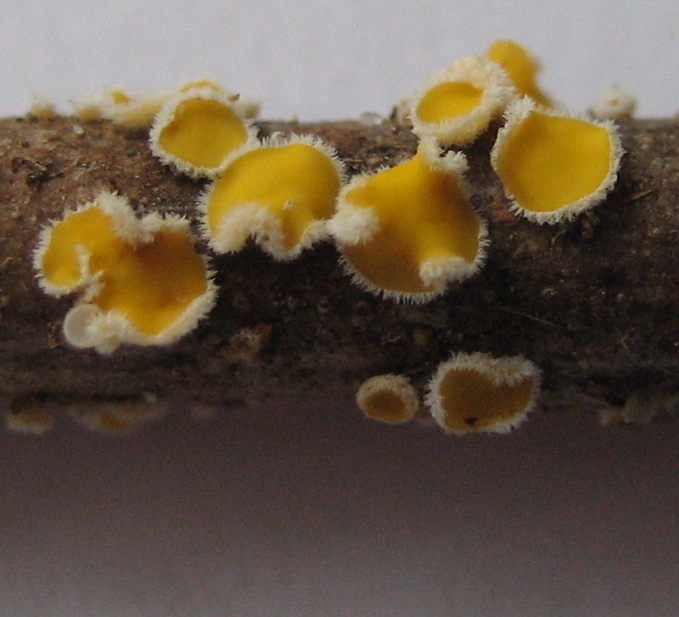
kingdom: Fungi
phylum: Ascomycota
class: Leotiomycetes
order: Helotiales
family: Lachnaceae
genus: Capitotricha
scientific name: Capitotricha bicolor
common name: prægtig frynseskive
